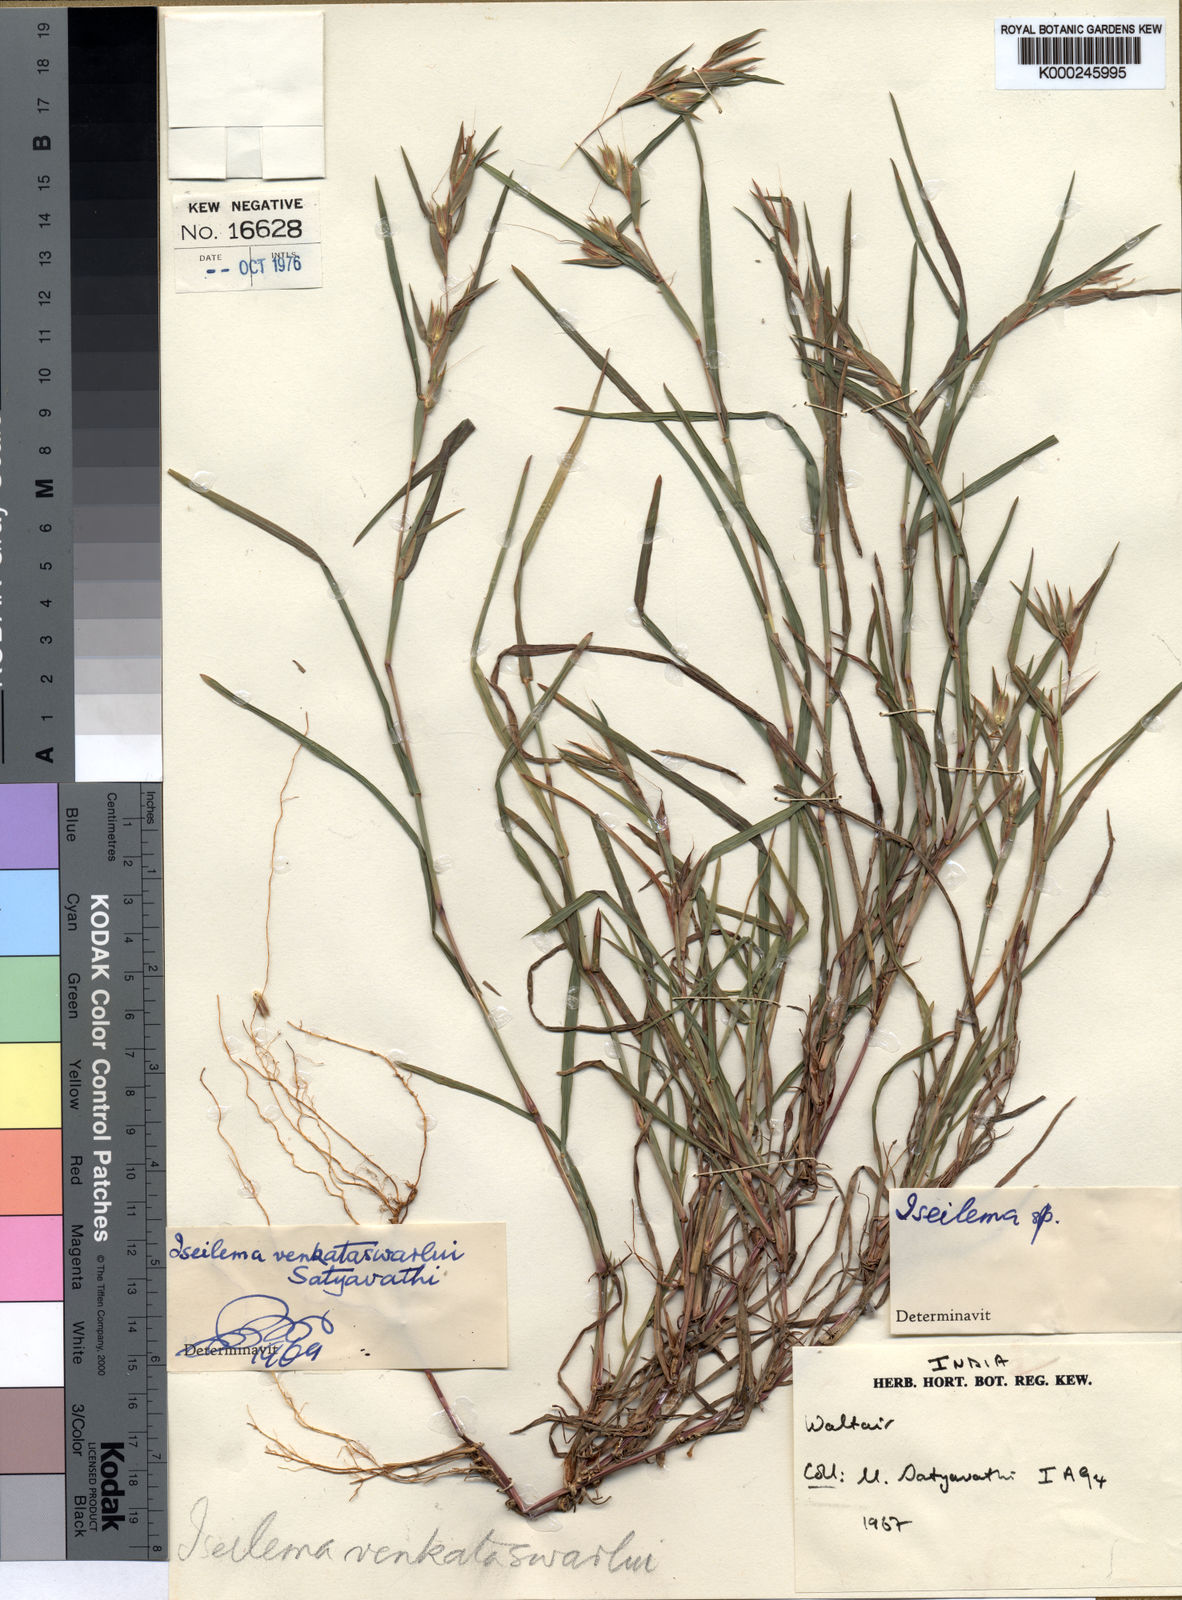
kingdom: Plantae
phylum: Tracheophyta
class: Liliopsida
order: Poales
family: Poaceae
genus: Iseilema
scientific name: Iseilema
